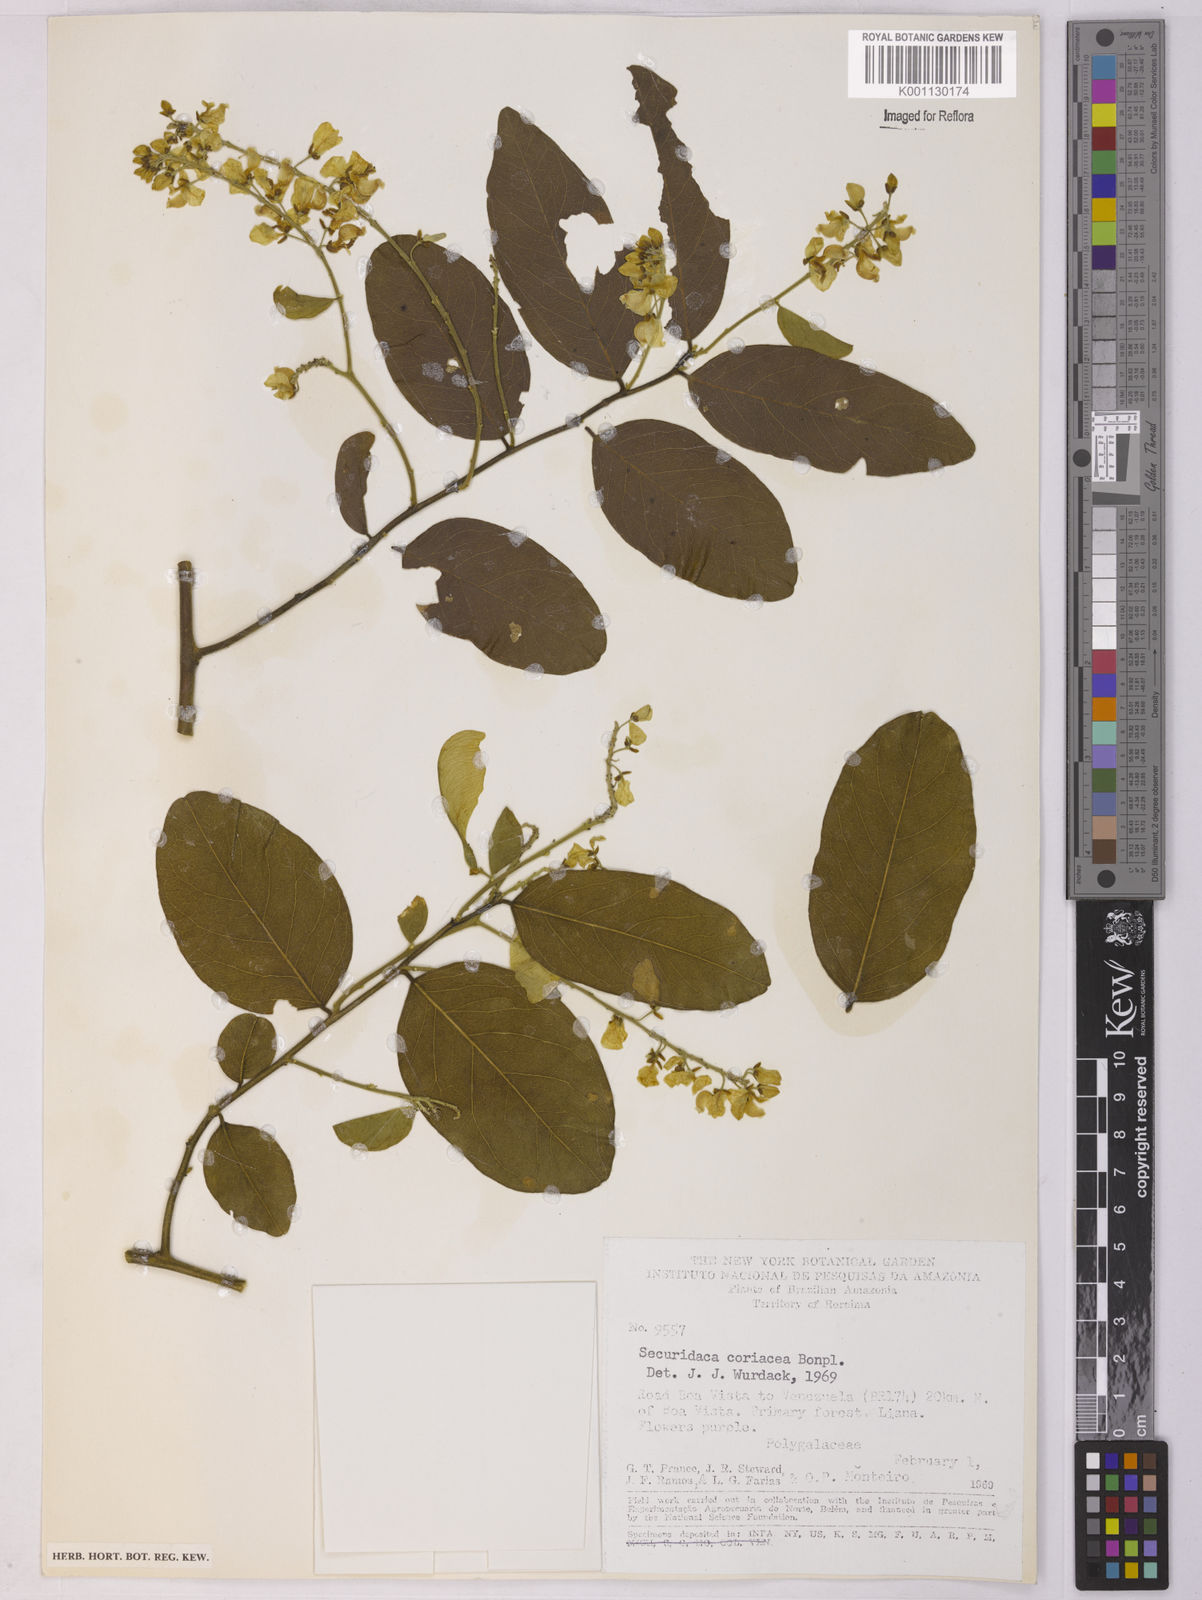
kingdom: Plantae
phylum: Tracheophyta
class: Magnoliopsida
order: Fabales
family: Polygalaceae
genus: Securidaca
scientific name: Securidaca coriacea
